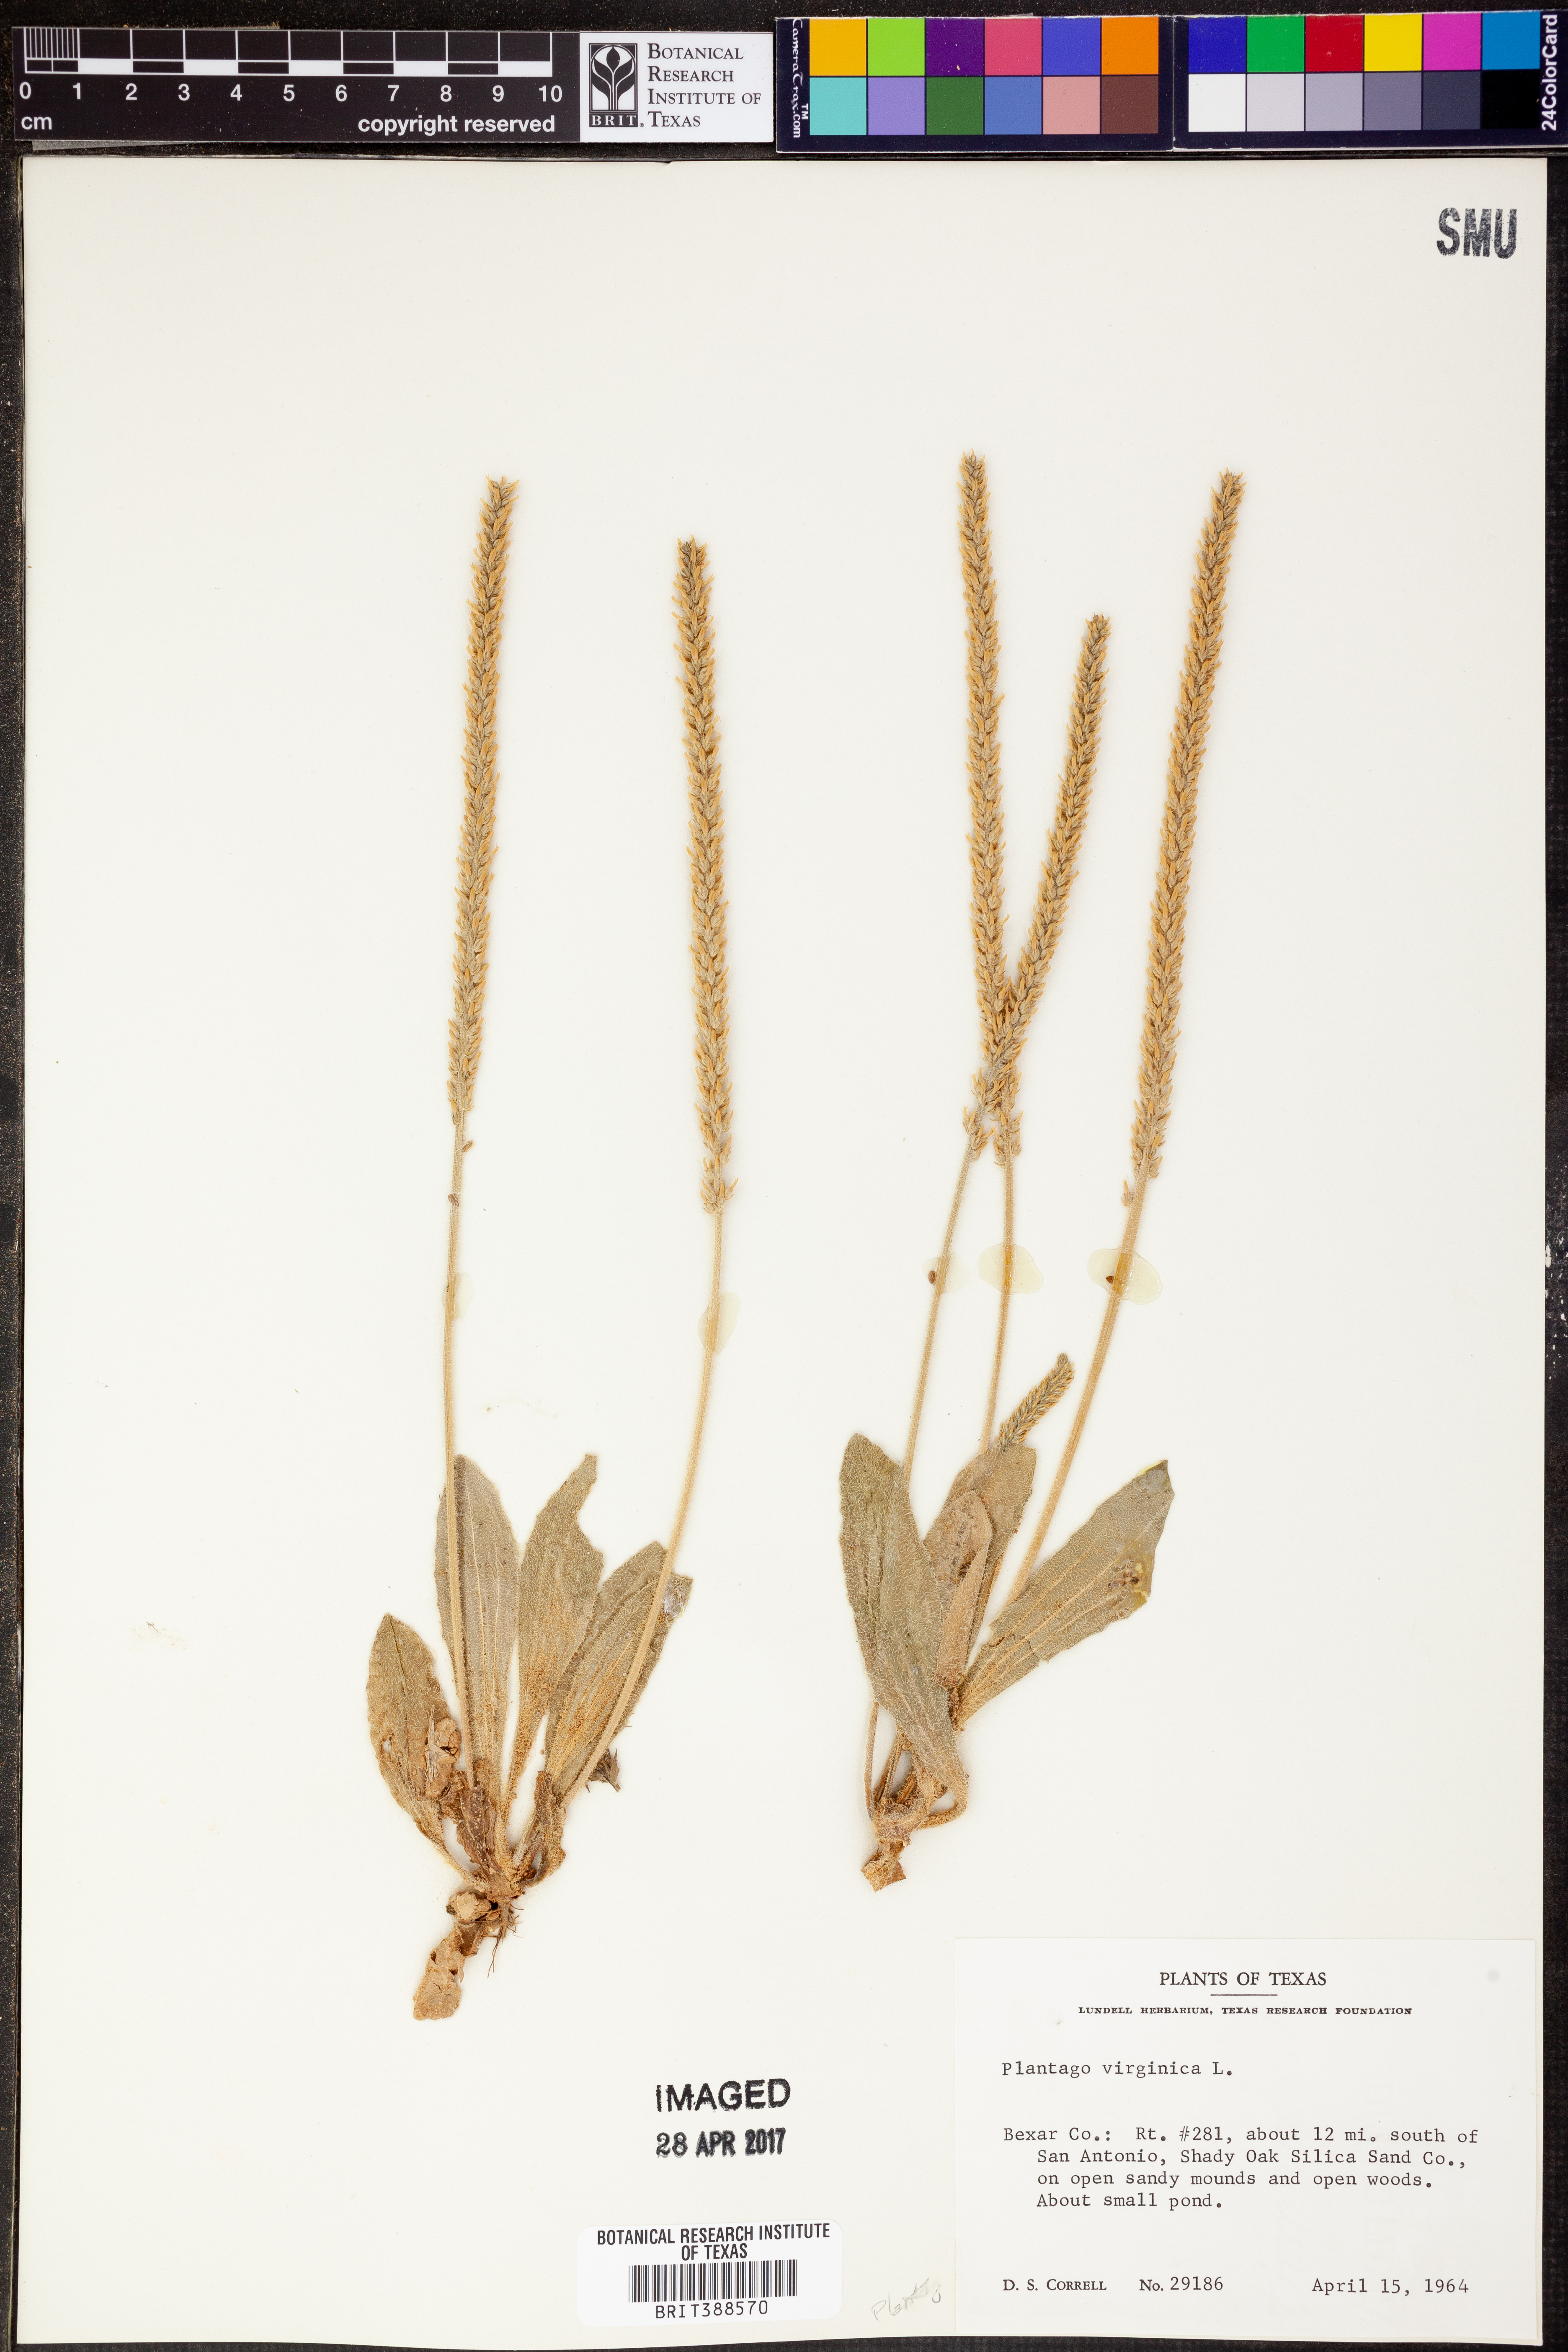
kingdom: Plantae
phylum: Tracheophyta
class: Magnoliopsida
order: Lamiales
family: Plantaginaceae
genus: Plantago
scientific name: Plantago virginica
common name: Hoary plantain
